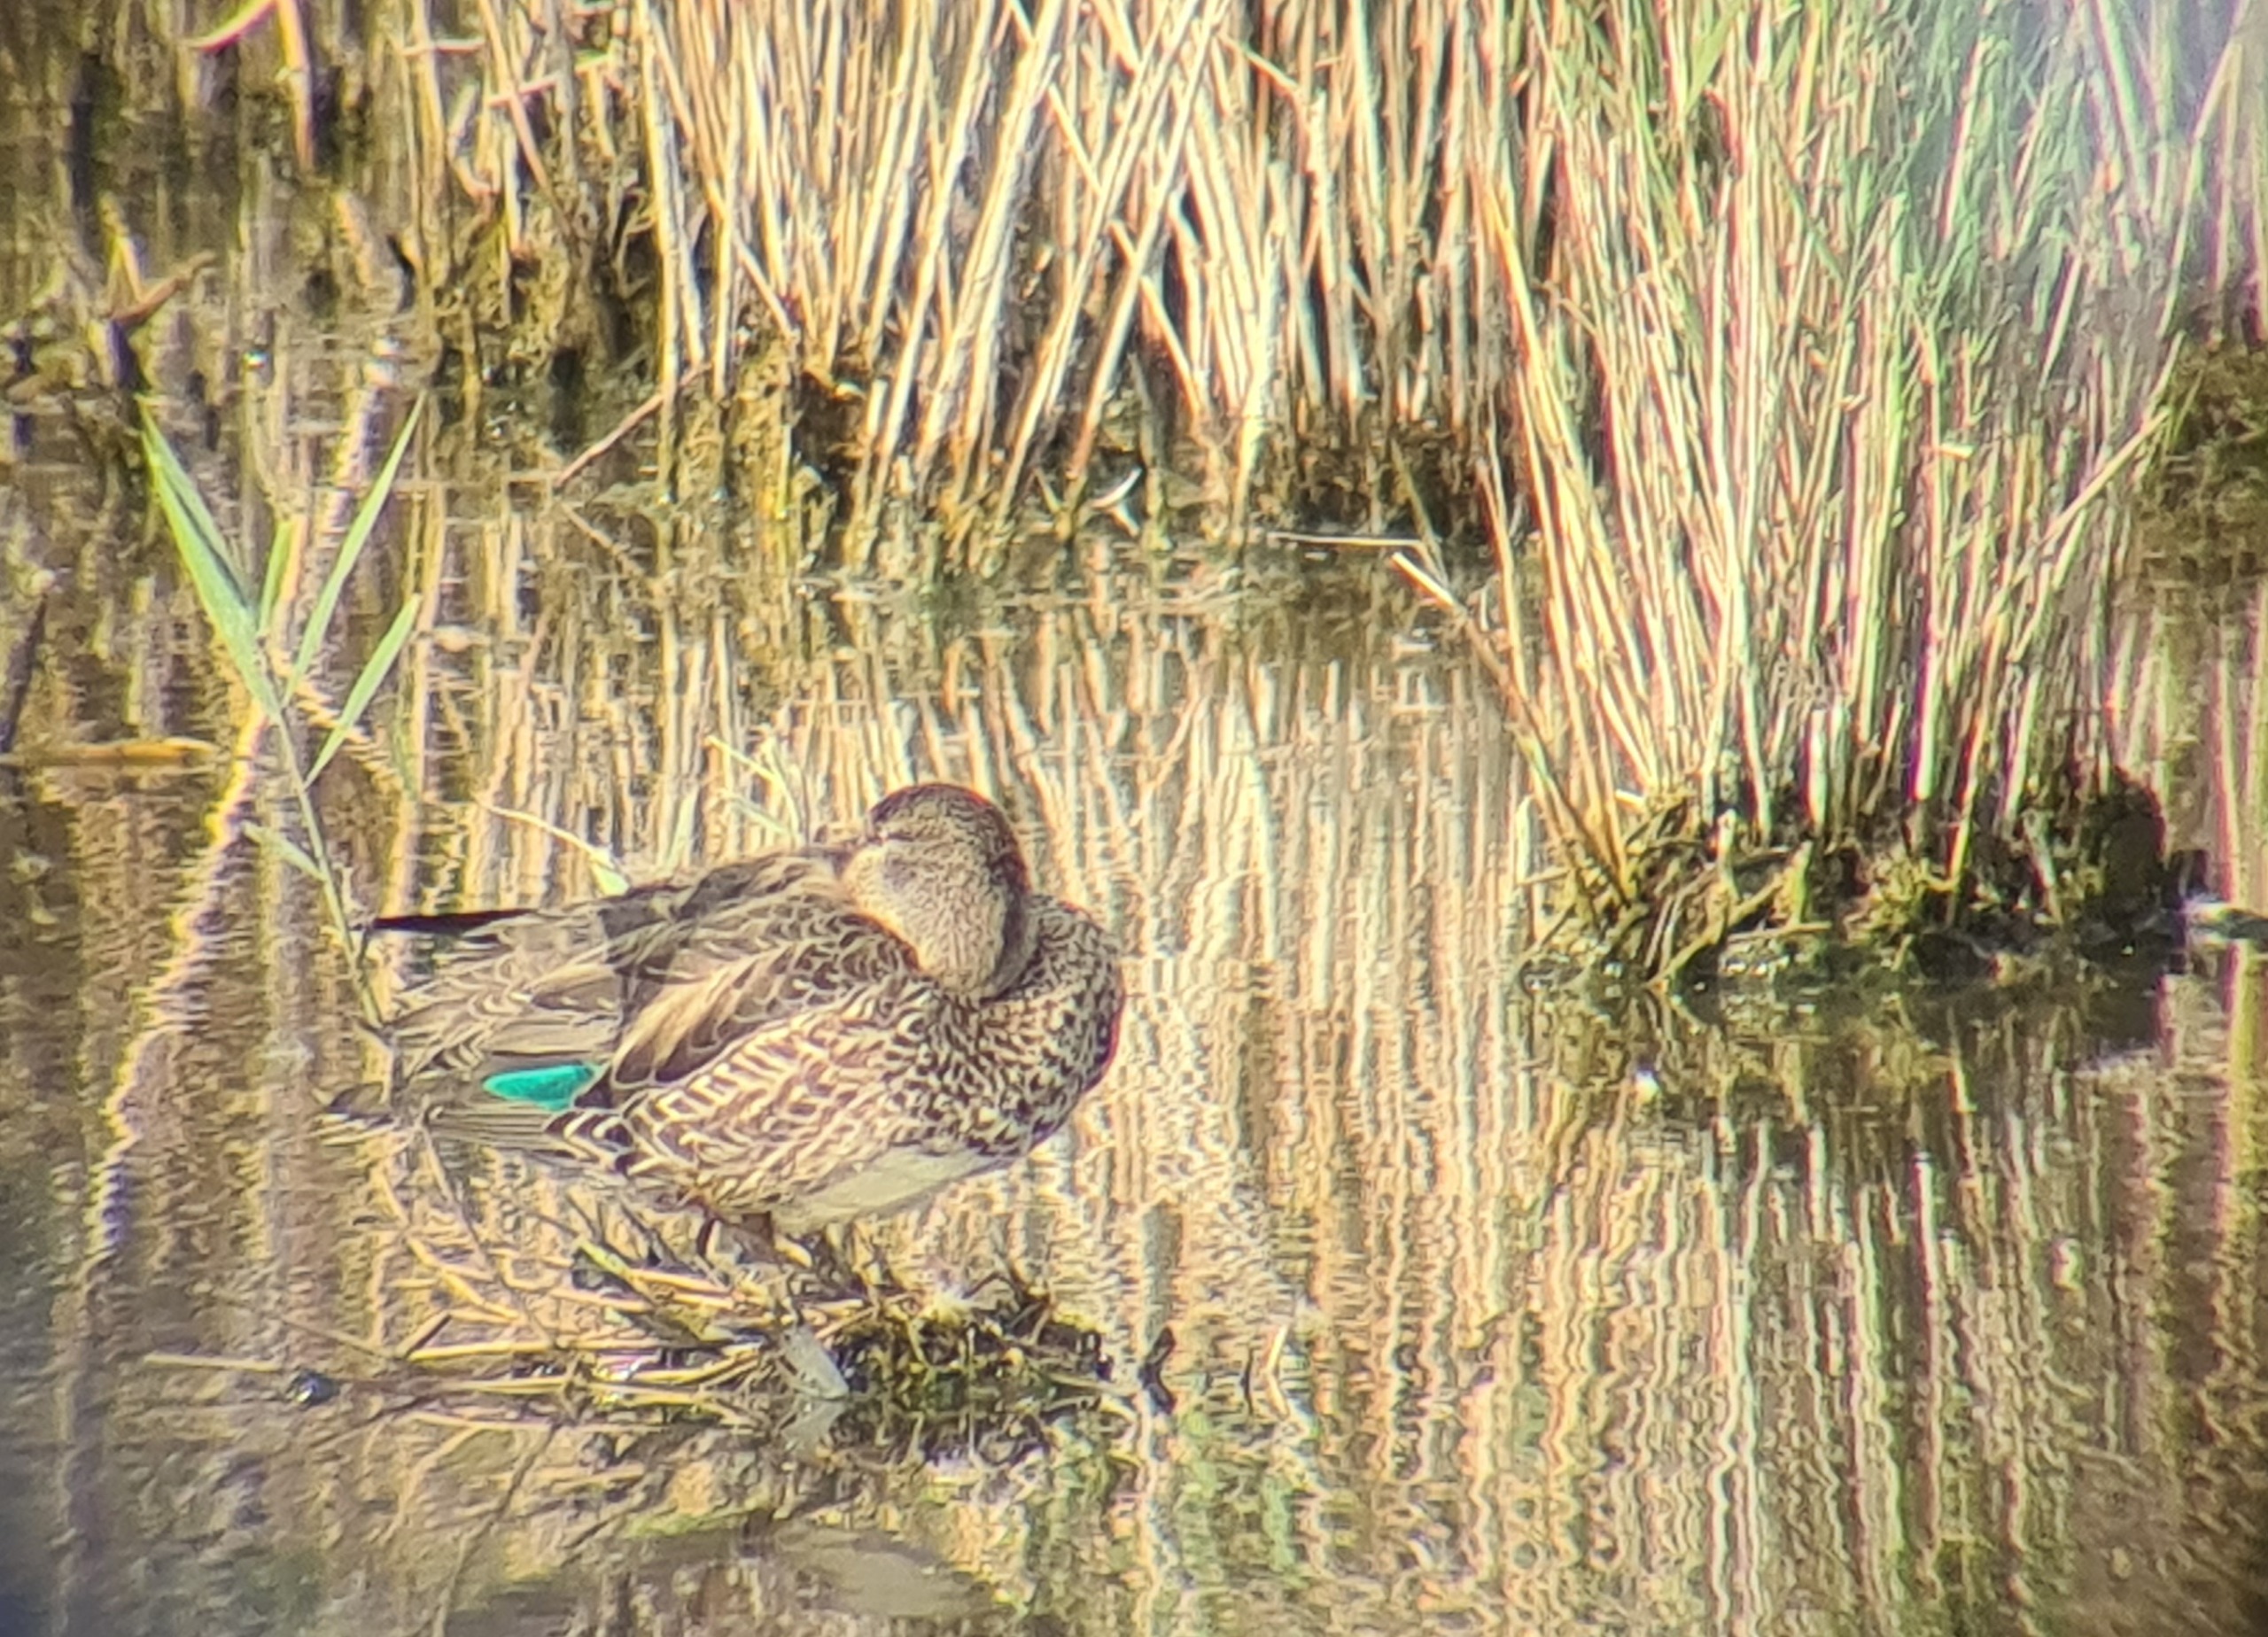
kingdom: Animalia
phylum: Chordata
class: Aves
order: Anseriformes
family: Anatidae
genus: Anas
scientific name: Anas crecca
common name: Krikand
